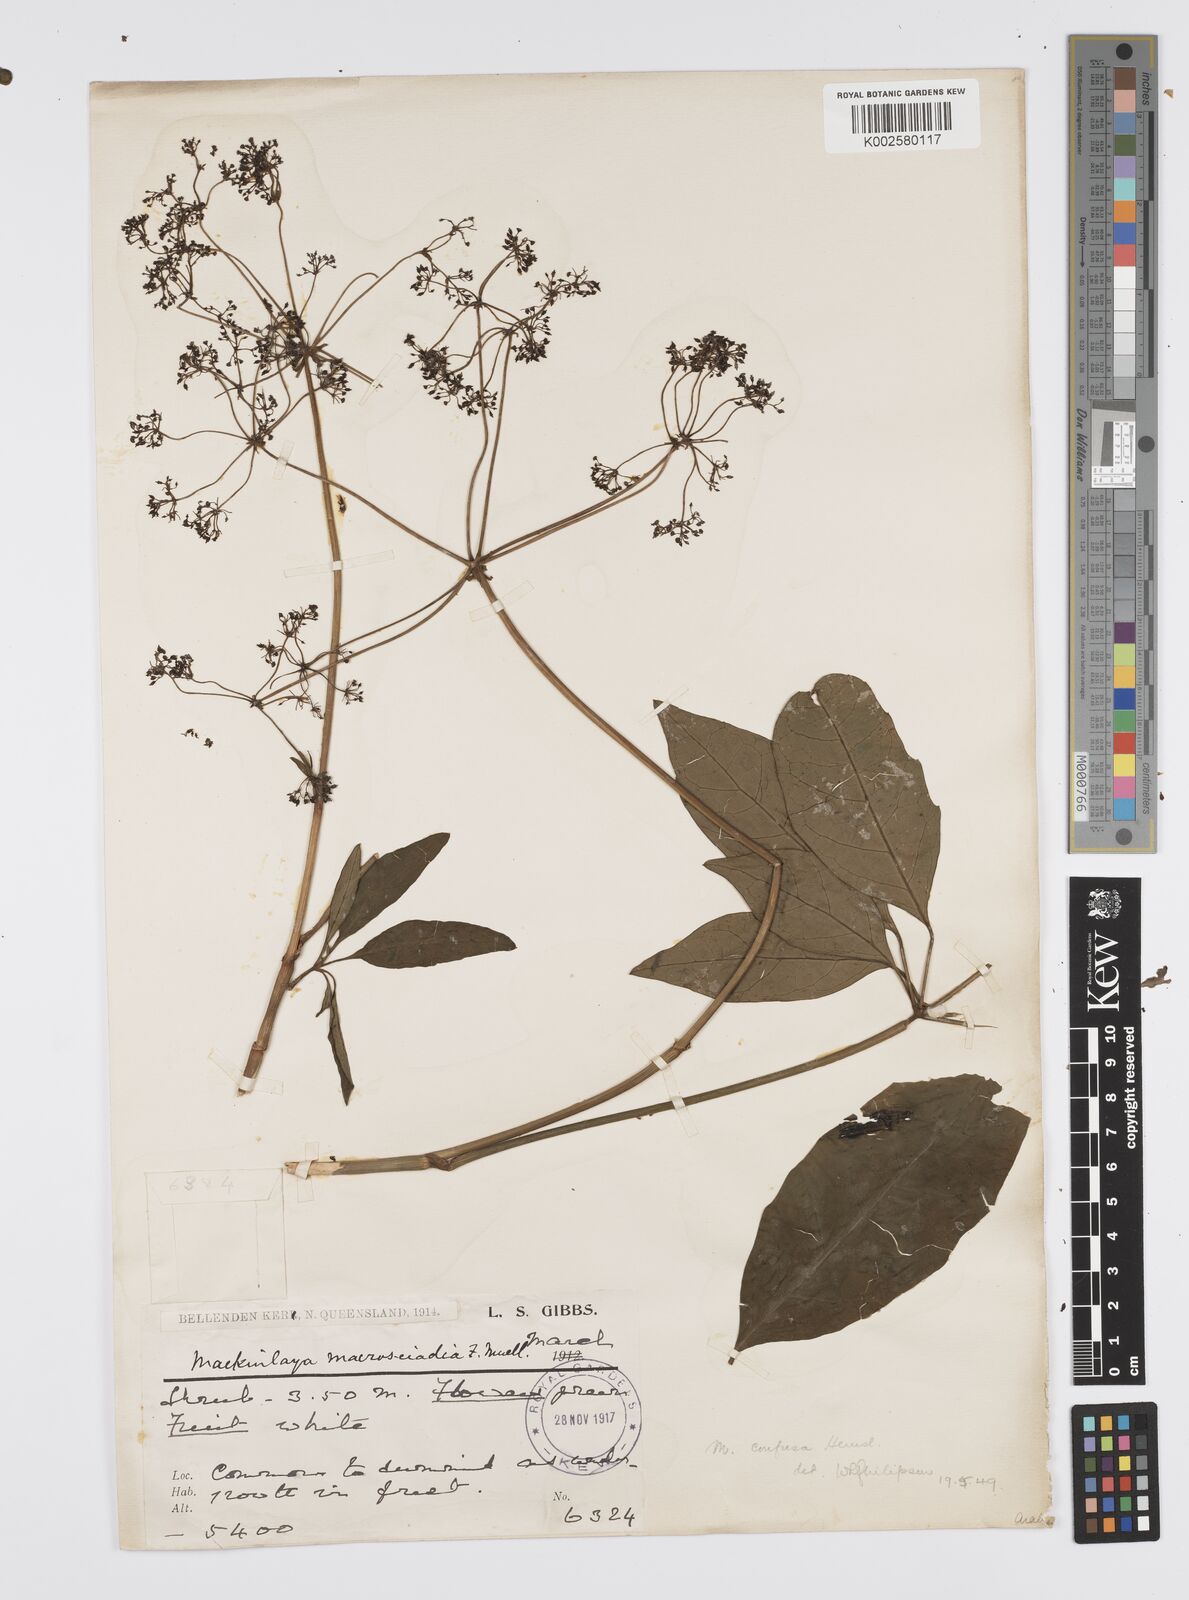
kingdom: Plantae
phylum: Tracheophyta
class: Magnoliopsida
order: Apiales
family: Apiaceae
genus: Mackinlaya
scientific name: Mackinlaya confusa
